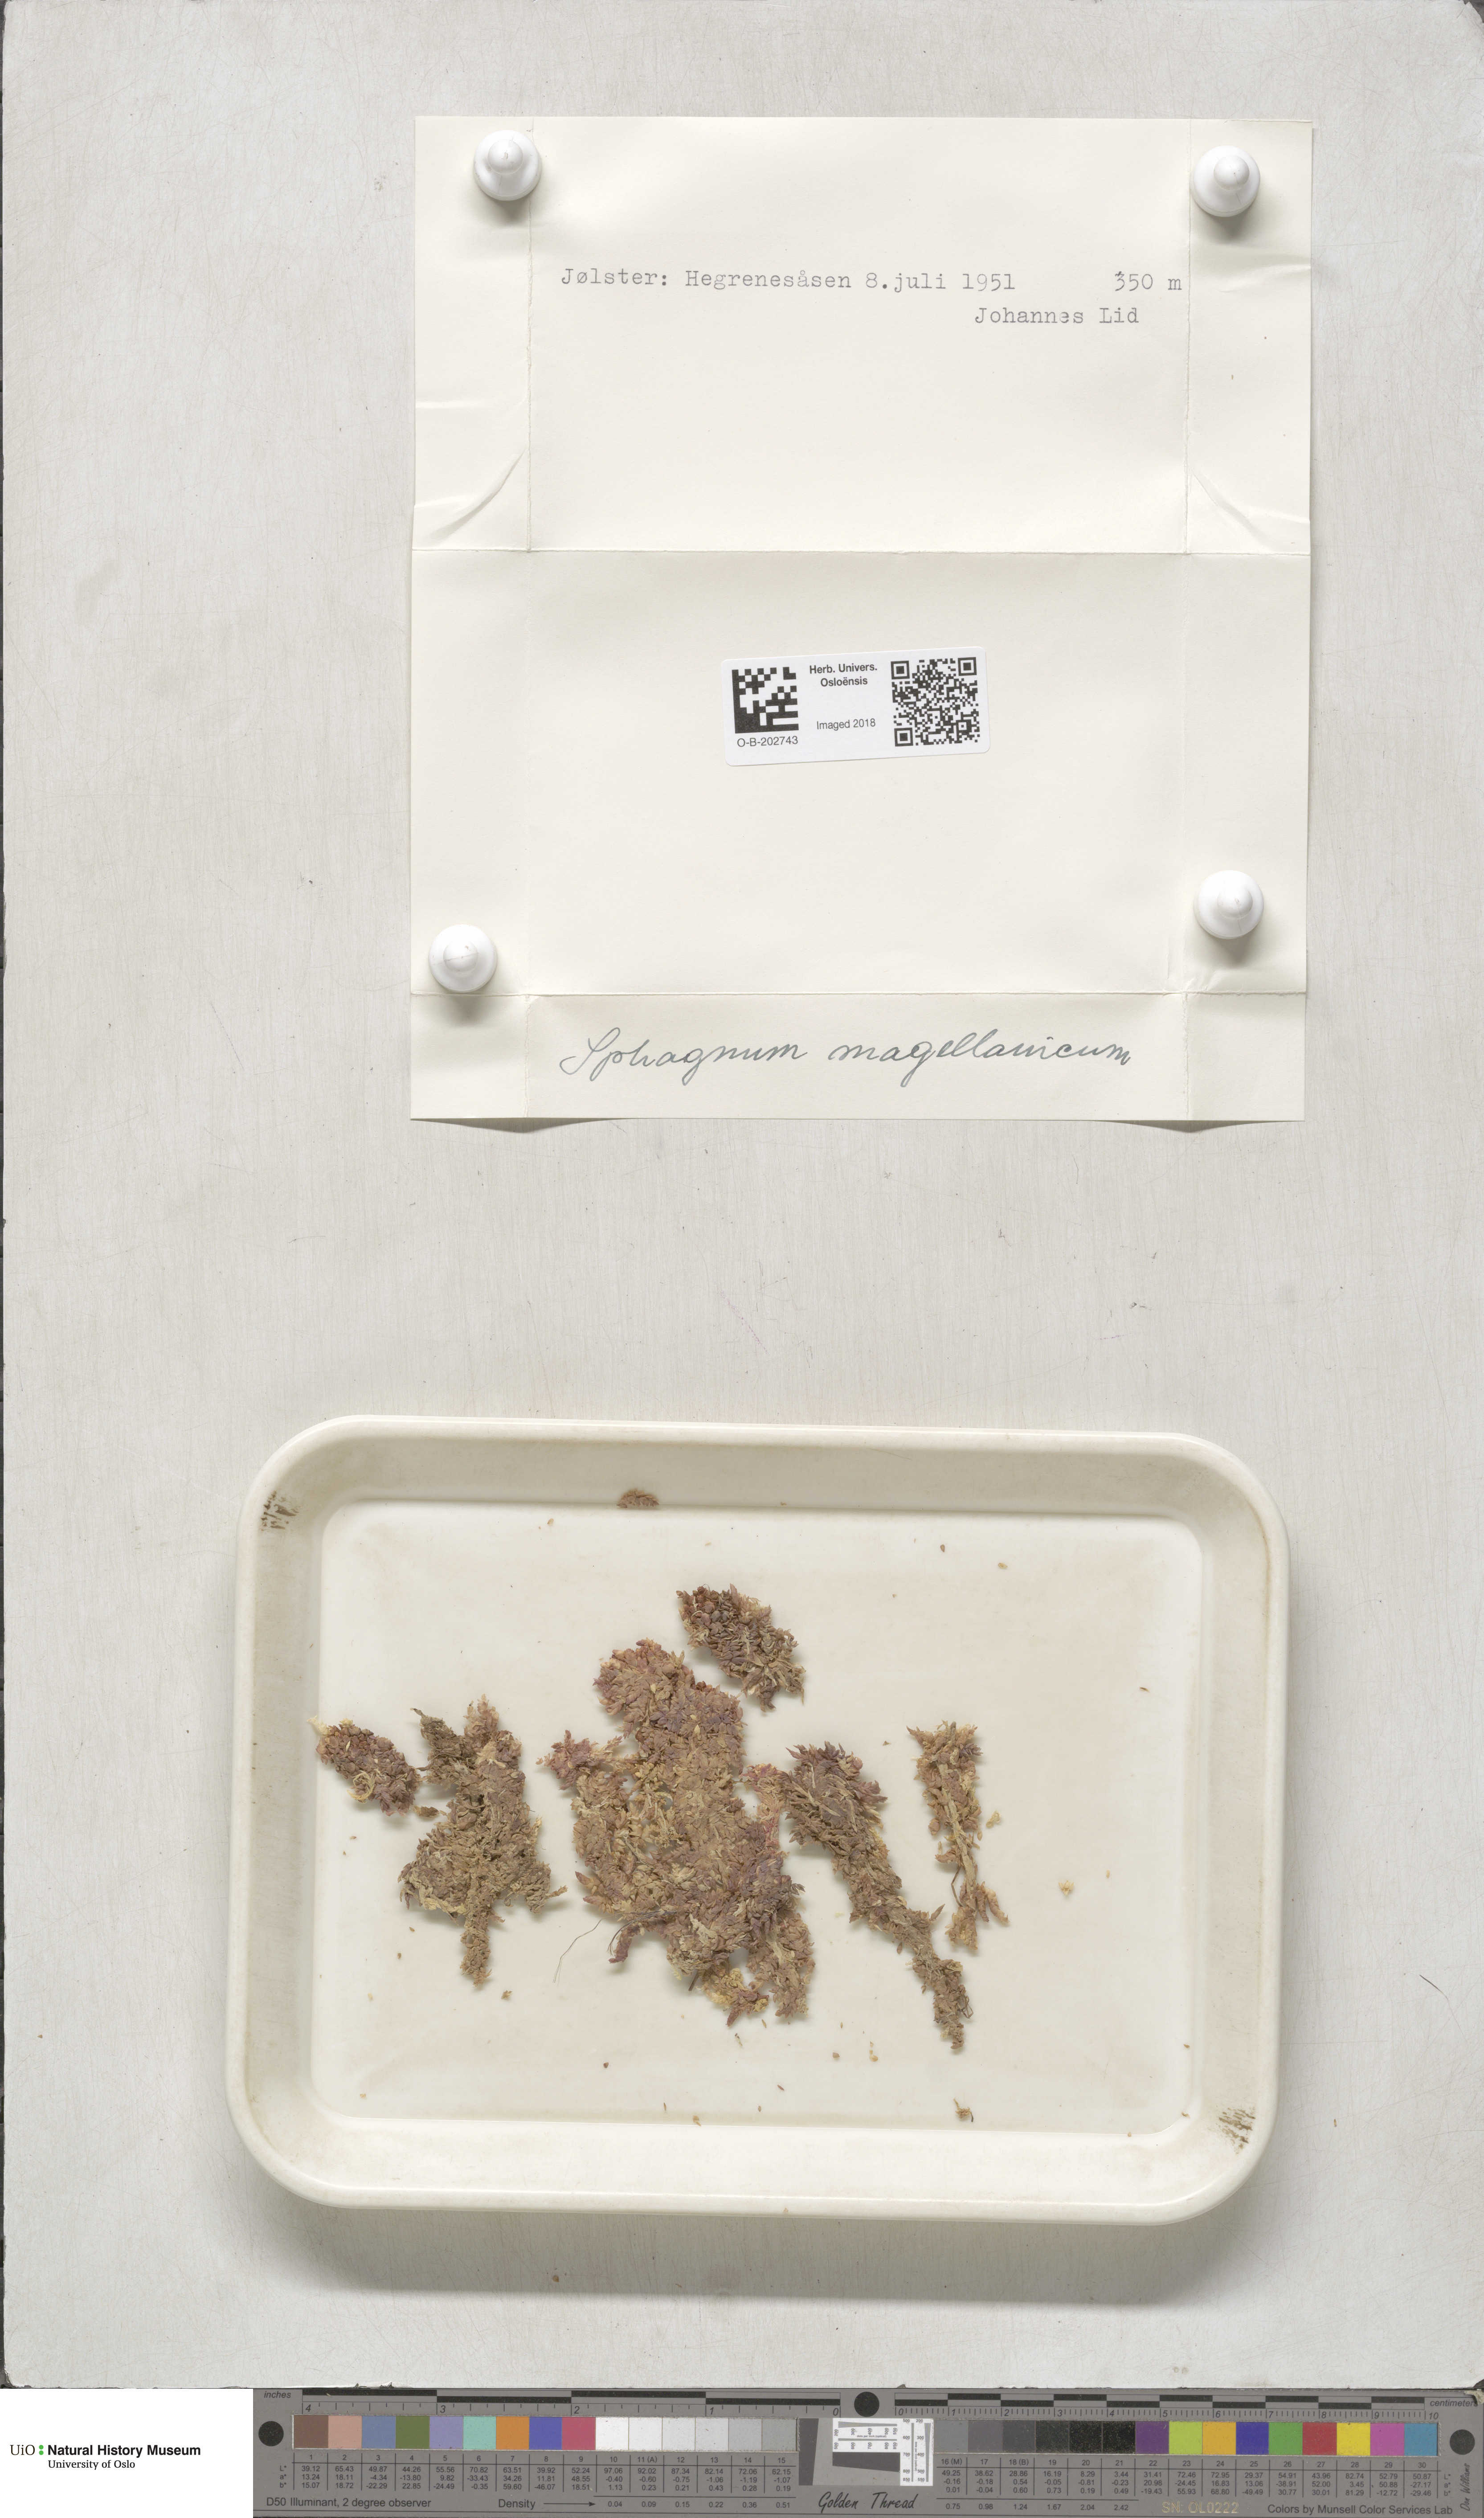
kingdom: Plantae
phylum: Bryophyta
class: Sphagnopsida
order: Sphagnales
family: Sphagnaceae
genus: Sphagnum
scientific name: Sphagnum magellanicum
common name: Magellan's peat moss
